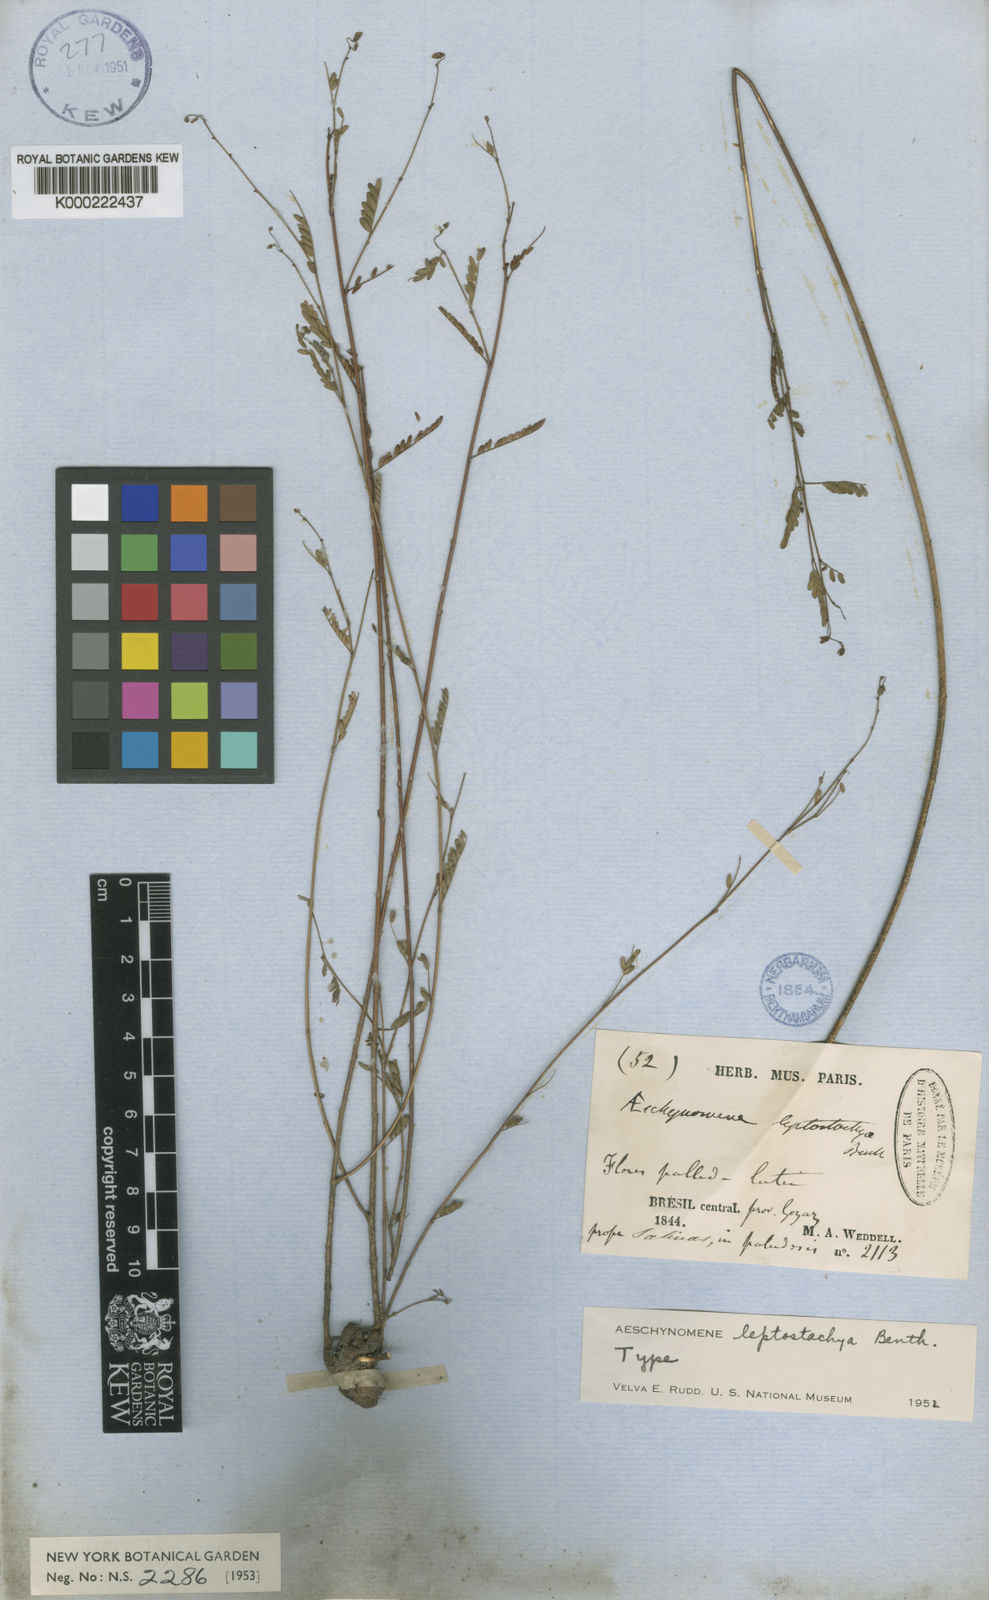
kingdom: Plantae
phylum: Tracheophyta
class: Magnoliopsida
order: Fabales
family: Fabaceae
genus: Ctenodon
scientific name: Ctenodon leptostachyus
